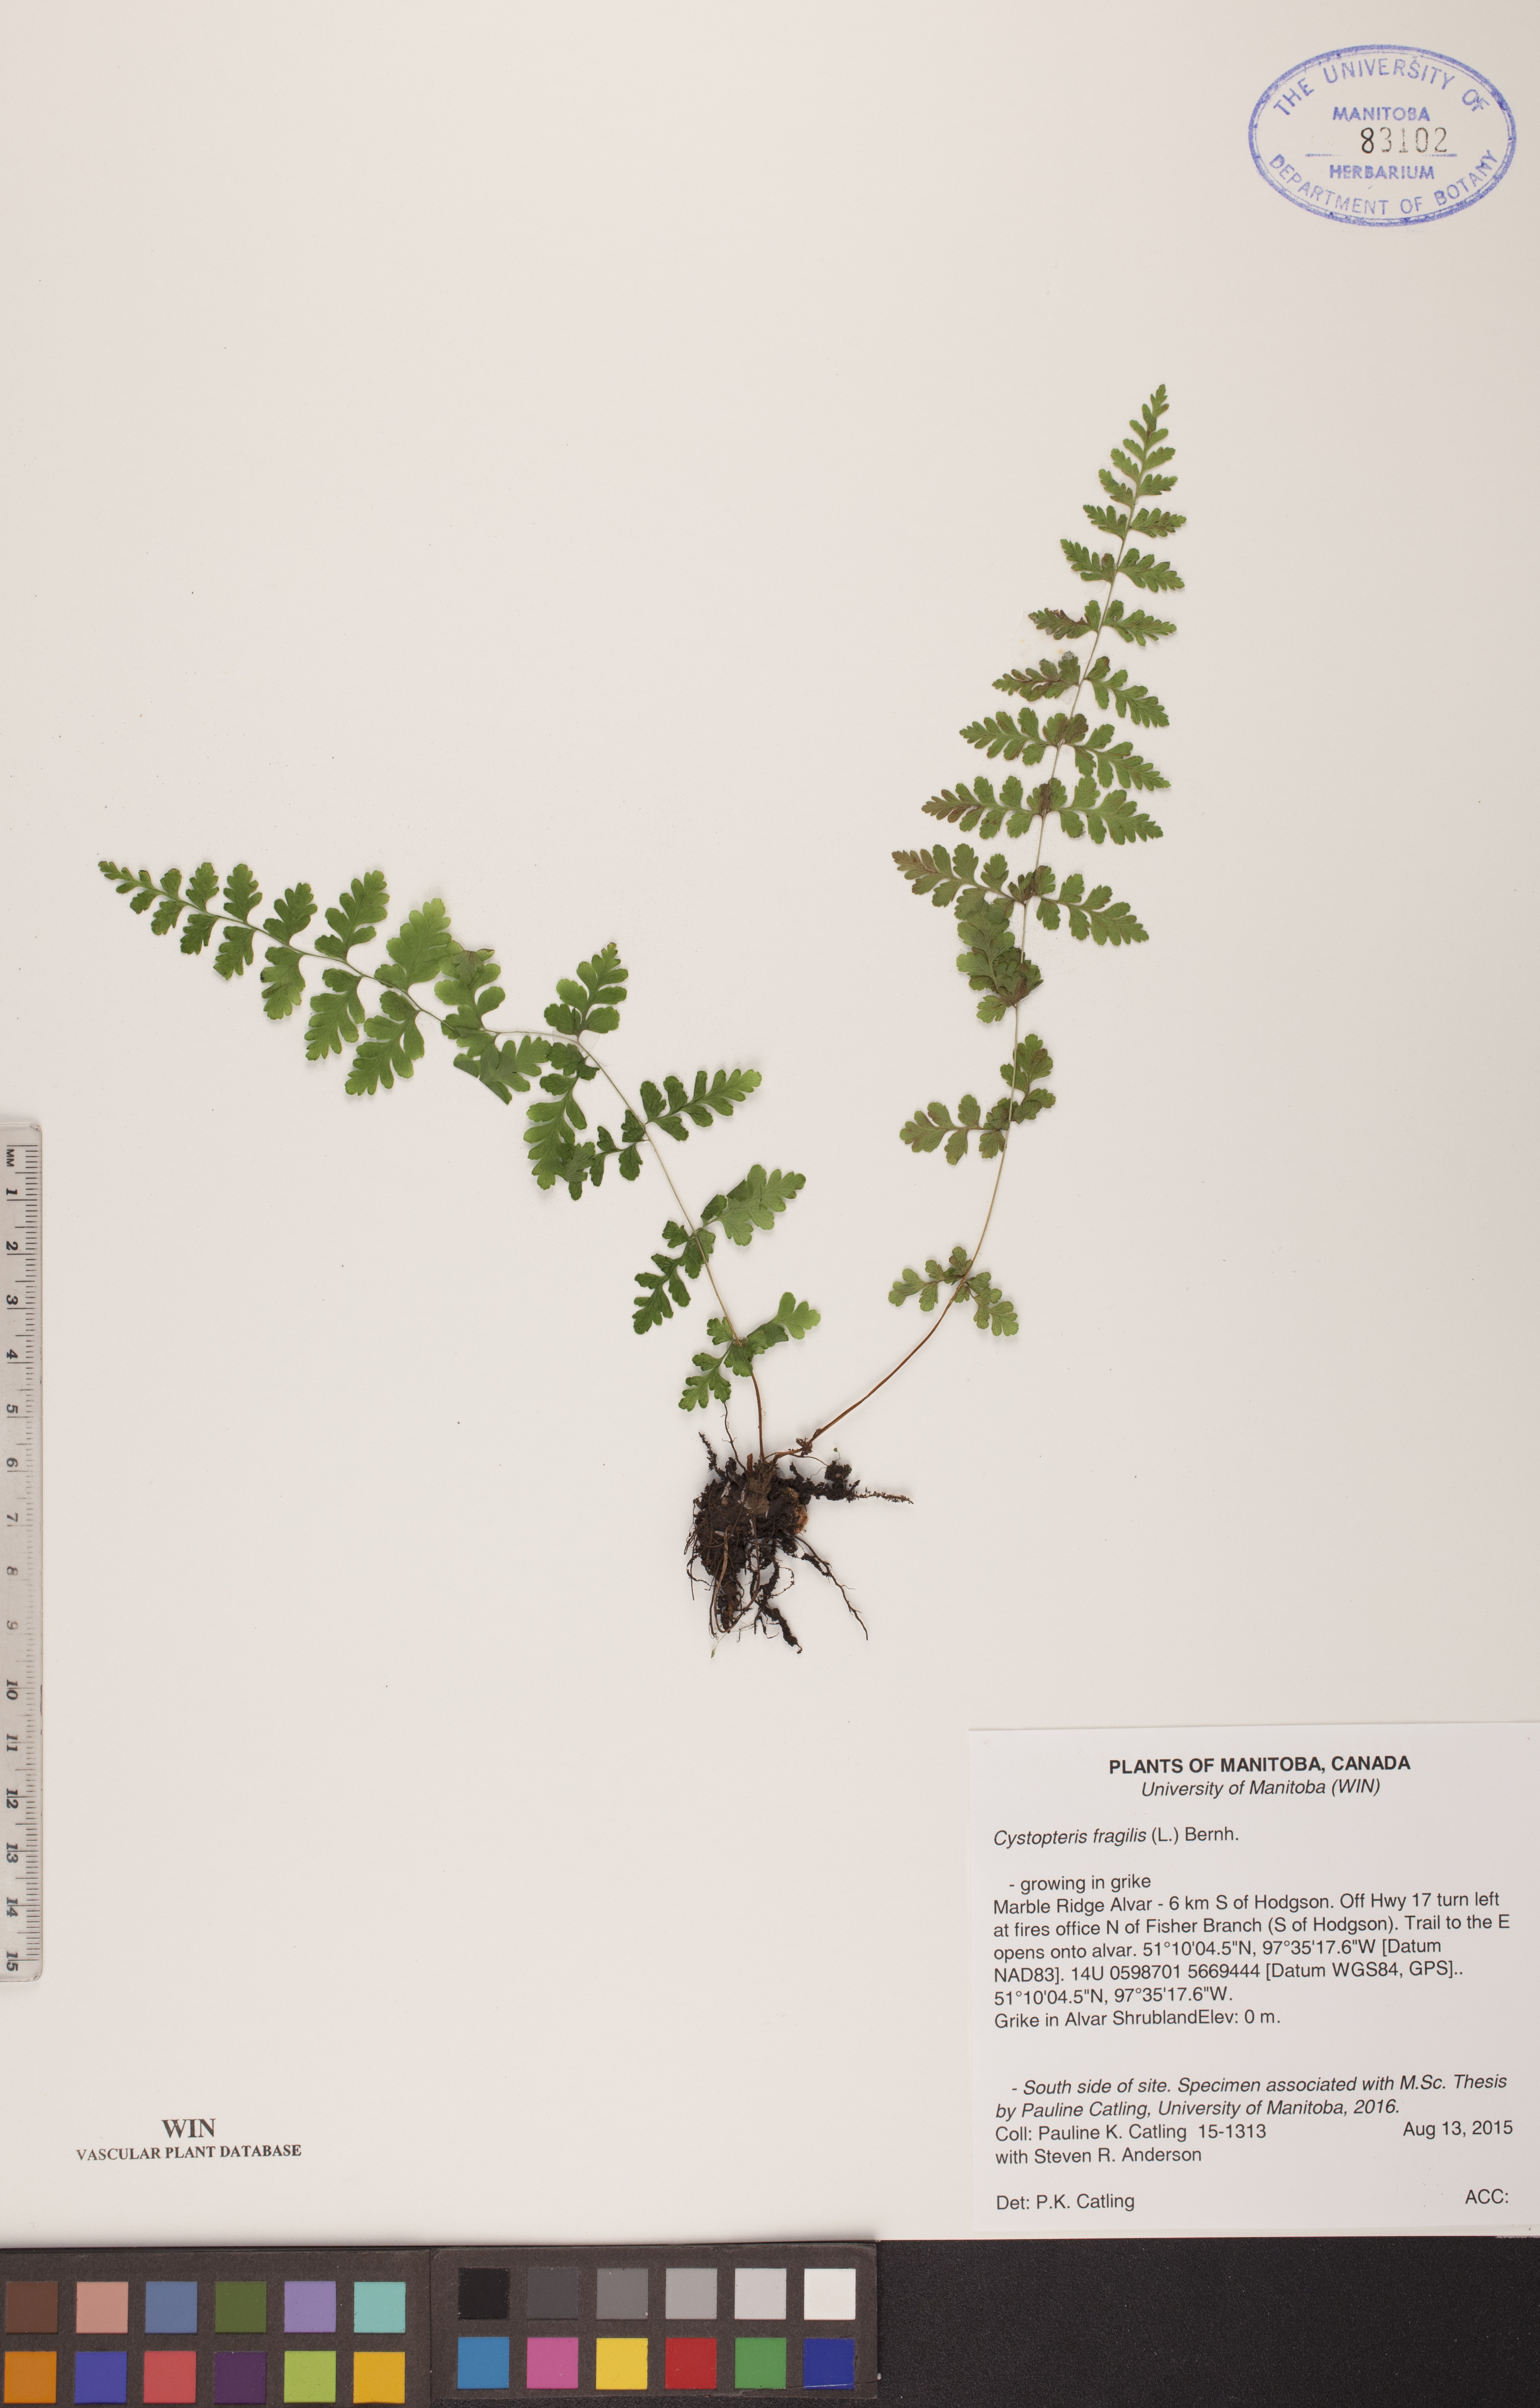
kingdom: Plantae
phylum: Tracheophyta
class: Polypodiopsida
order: Polypodiales
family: Cystopteridaceae
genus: Cystopteris
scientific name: Cystopteris fragilis
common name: Brittle bladder fern
